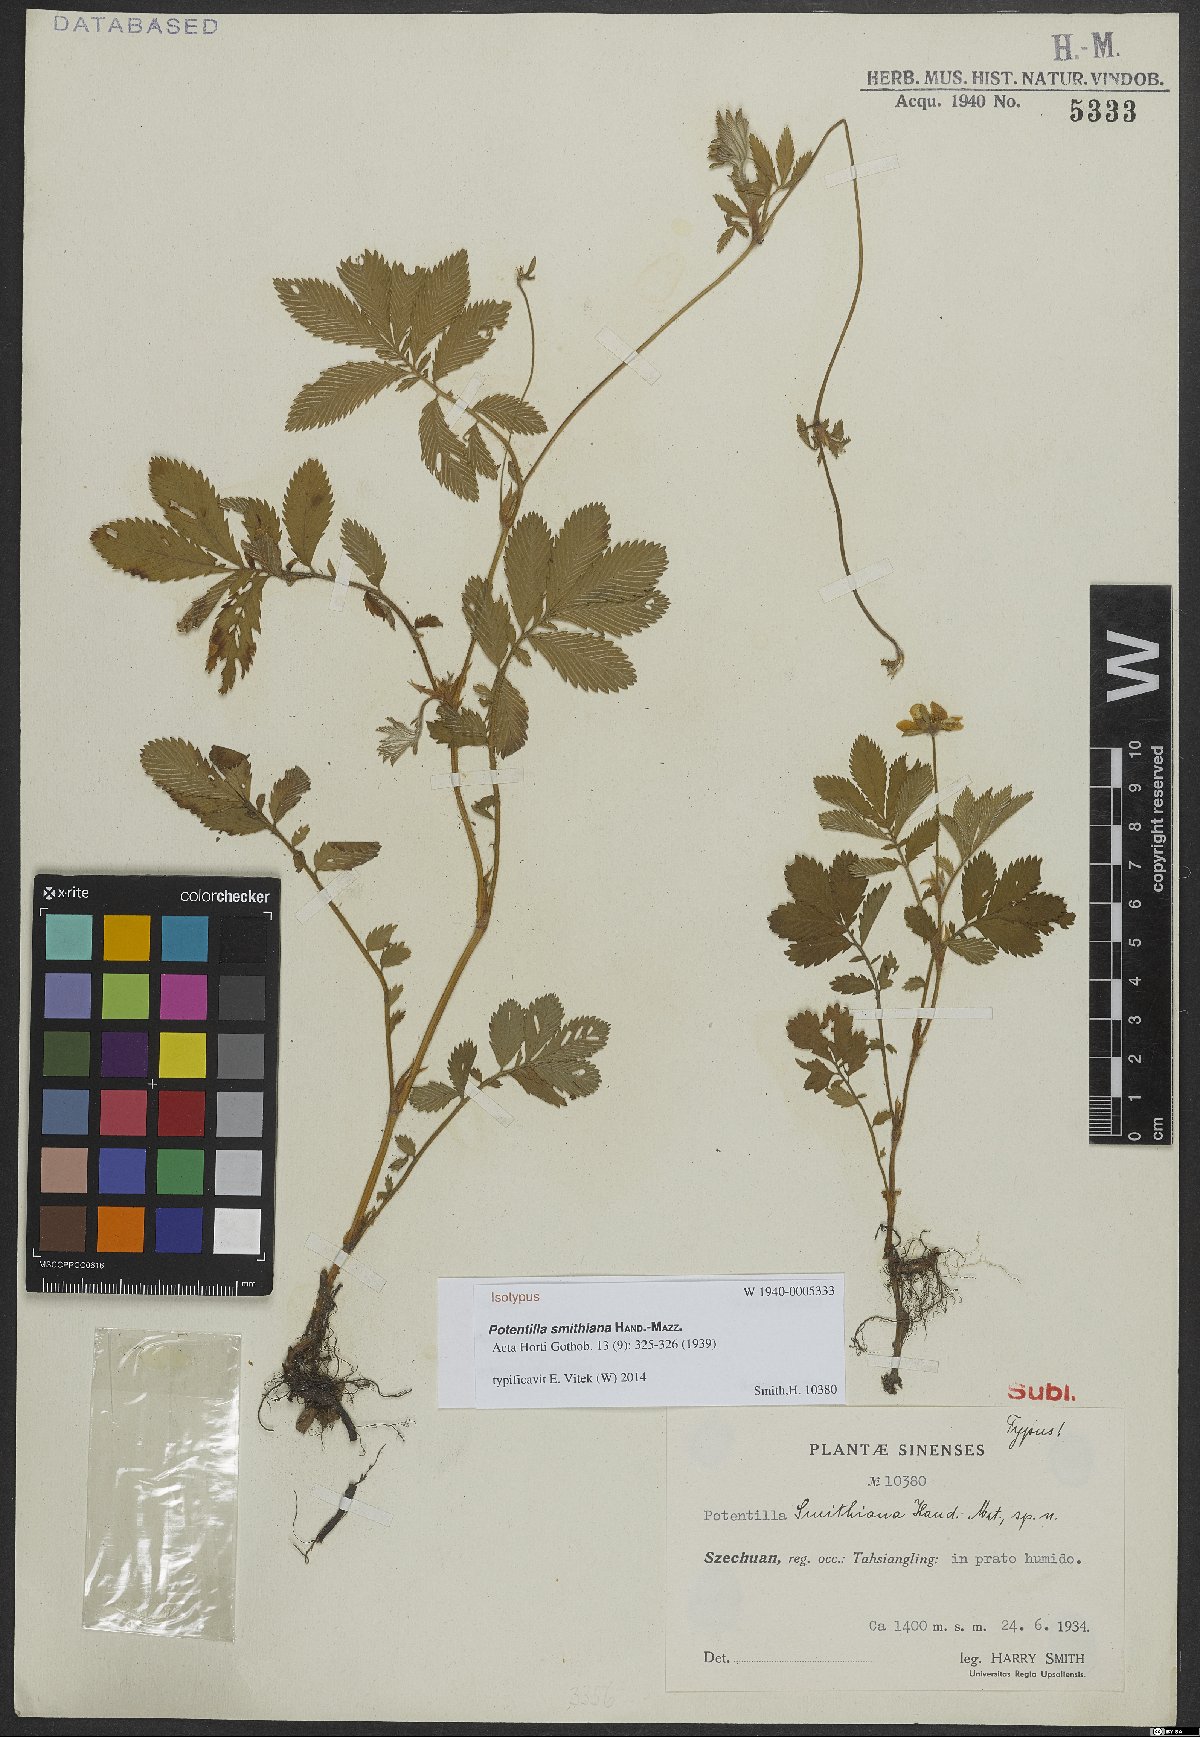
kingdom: Plantae
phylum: Tracheophyta
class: Magnoliopsida
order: Rosales
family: Rosaceae
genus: Argentina
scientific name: Argentina smithiana
